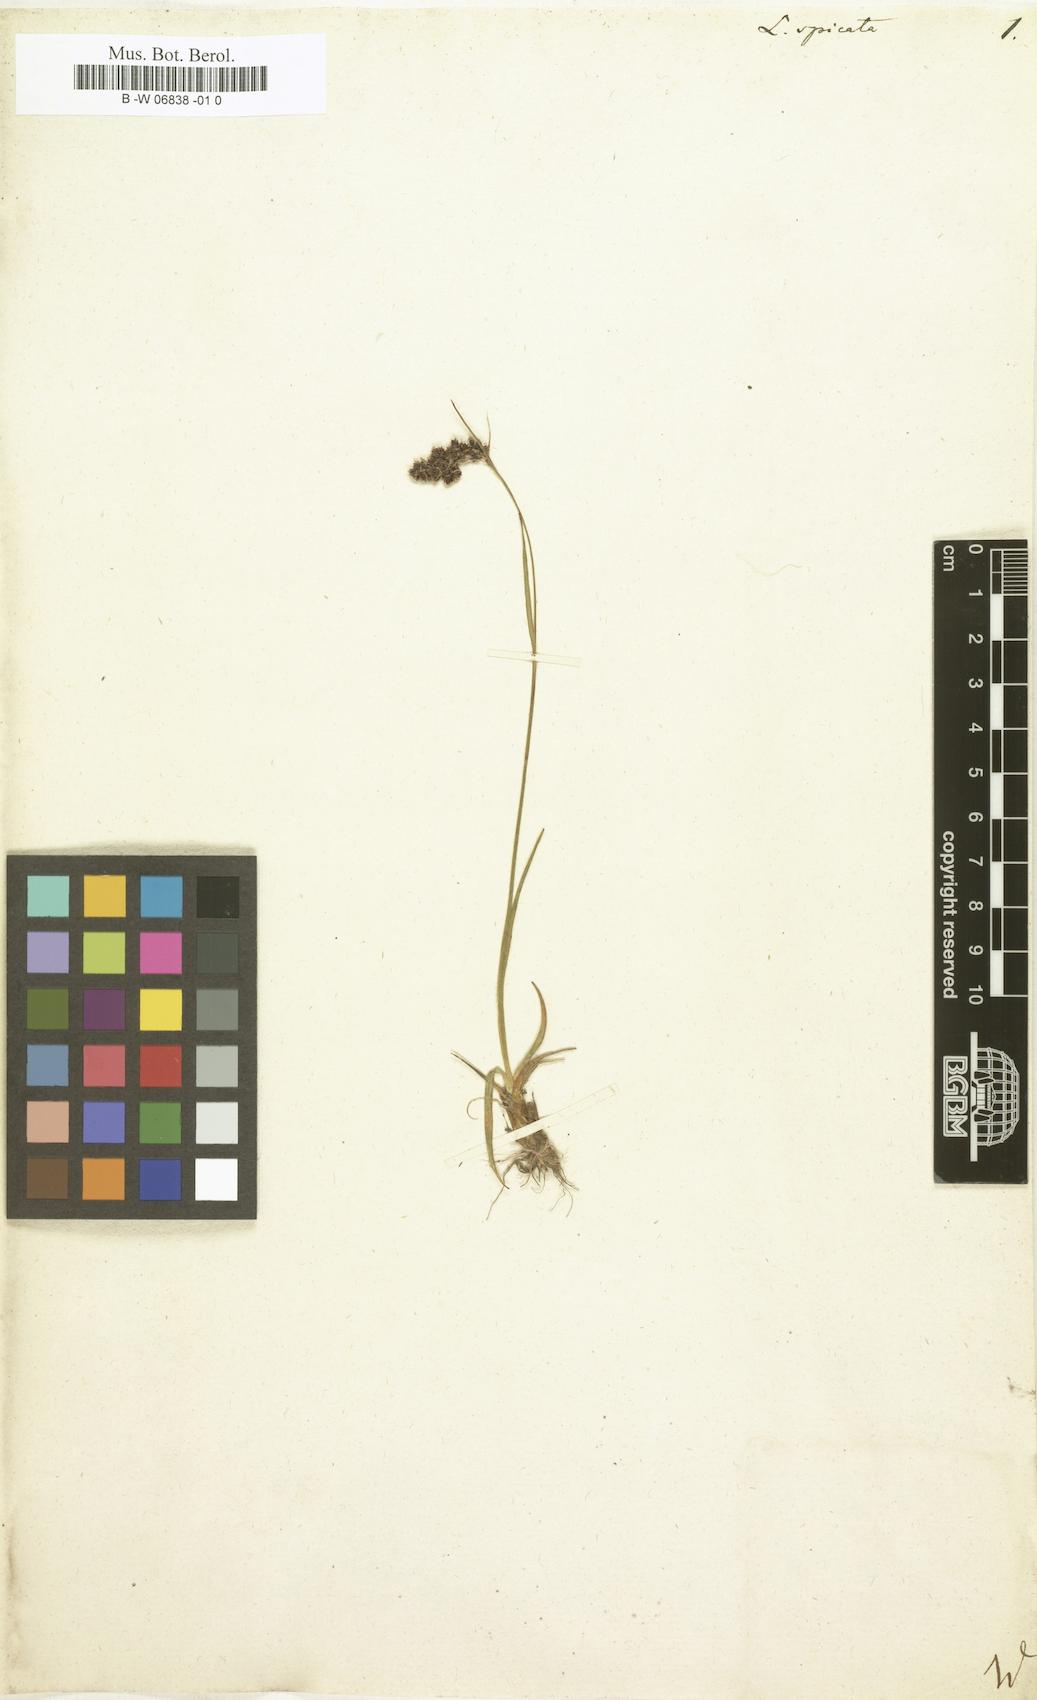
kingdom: Plantae
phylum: Tracheophyta
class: Liliopsida
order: Poales
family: Juncaceae
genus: Luzula
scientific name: Luzula spicata
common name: Spiked wood-rush
